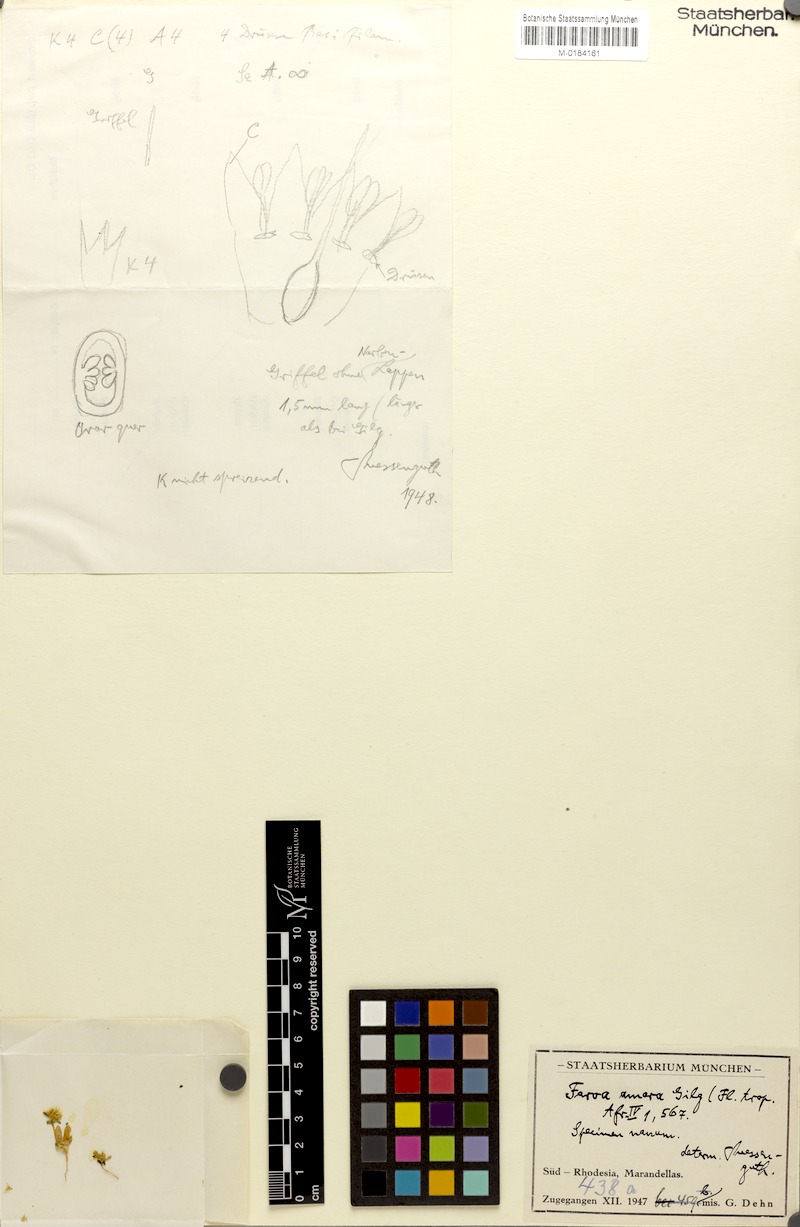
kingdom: Plantae
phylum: Tracheophyta
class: Magnoliopsida
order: Gentianales
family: Gentianaceae
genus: Faroa
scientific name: Faroa amara
